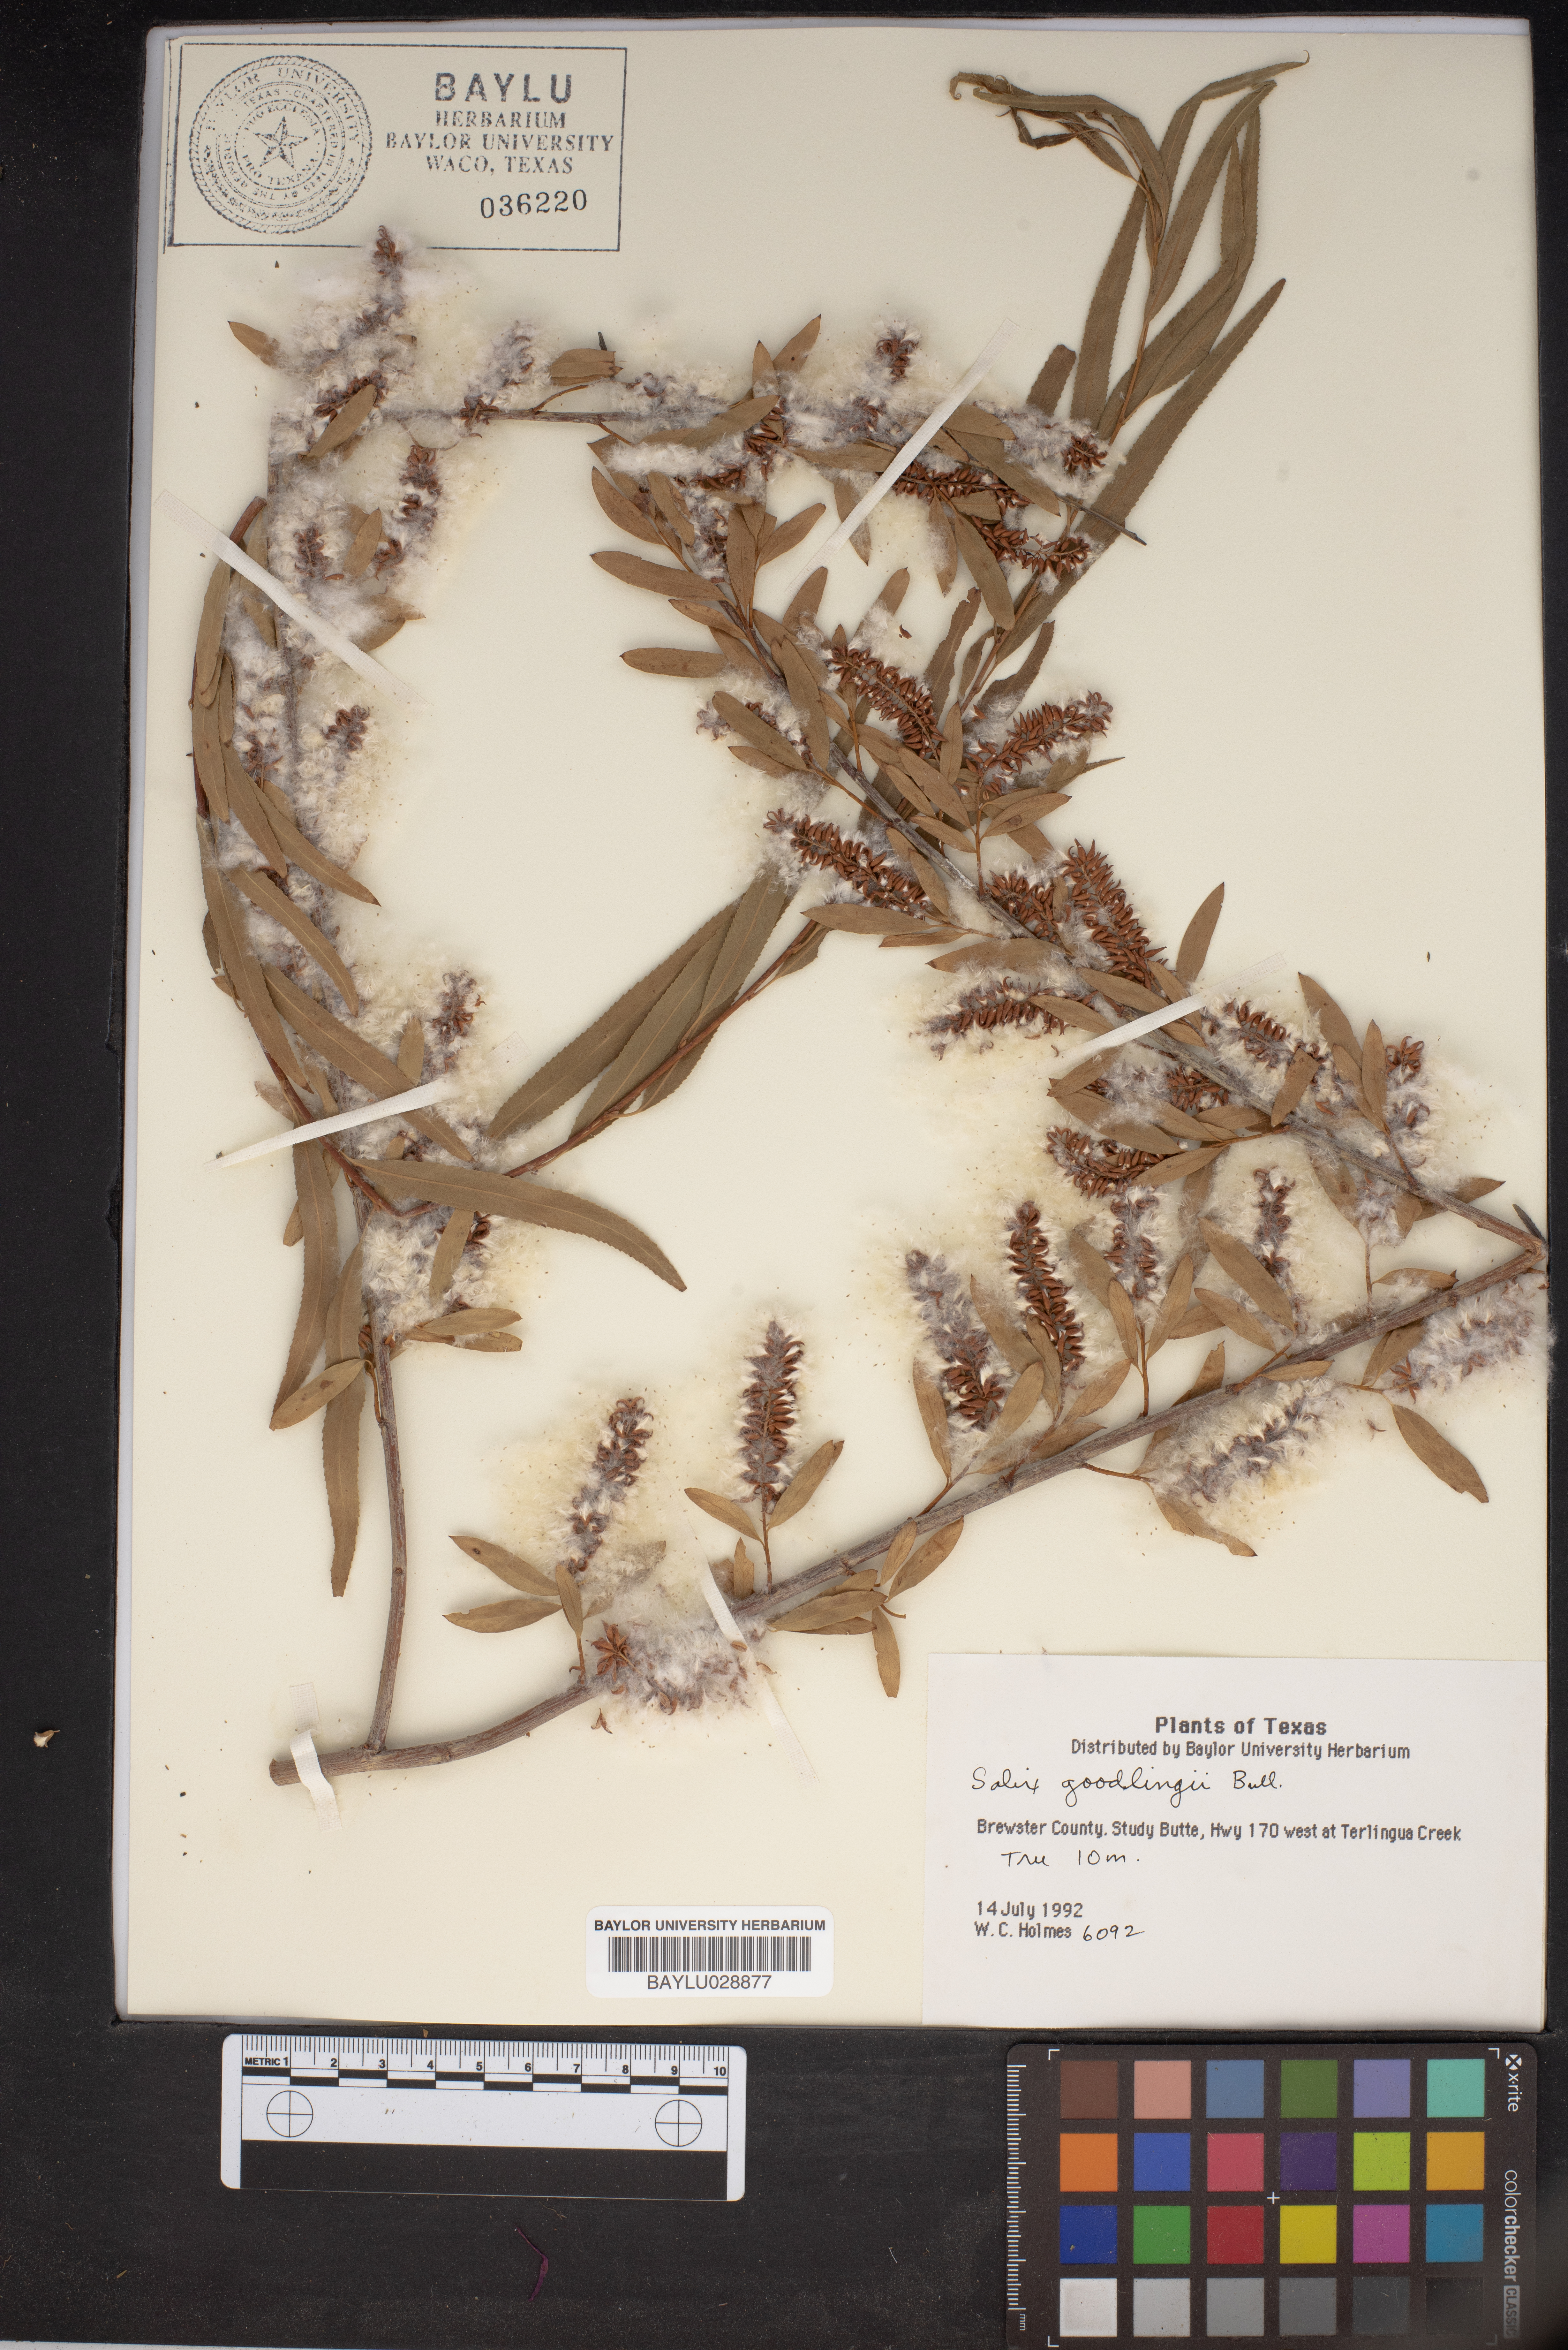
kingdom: Plantae
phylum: Tracheophyta
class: Magnoliopsida
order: Malpighiales
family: Salicaceae
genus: Salix
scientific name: Salix gooddingii
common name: Goodding's willow
